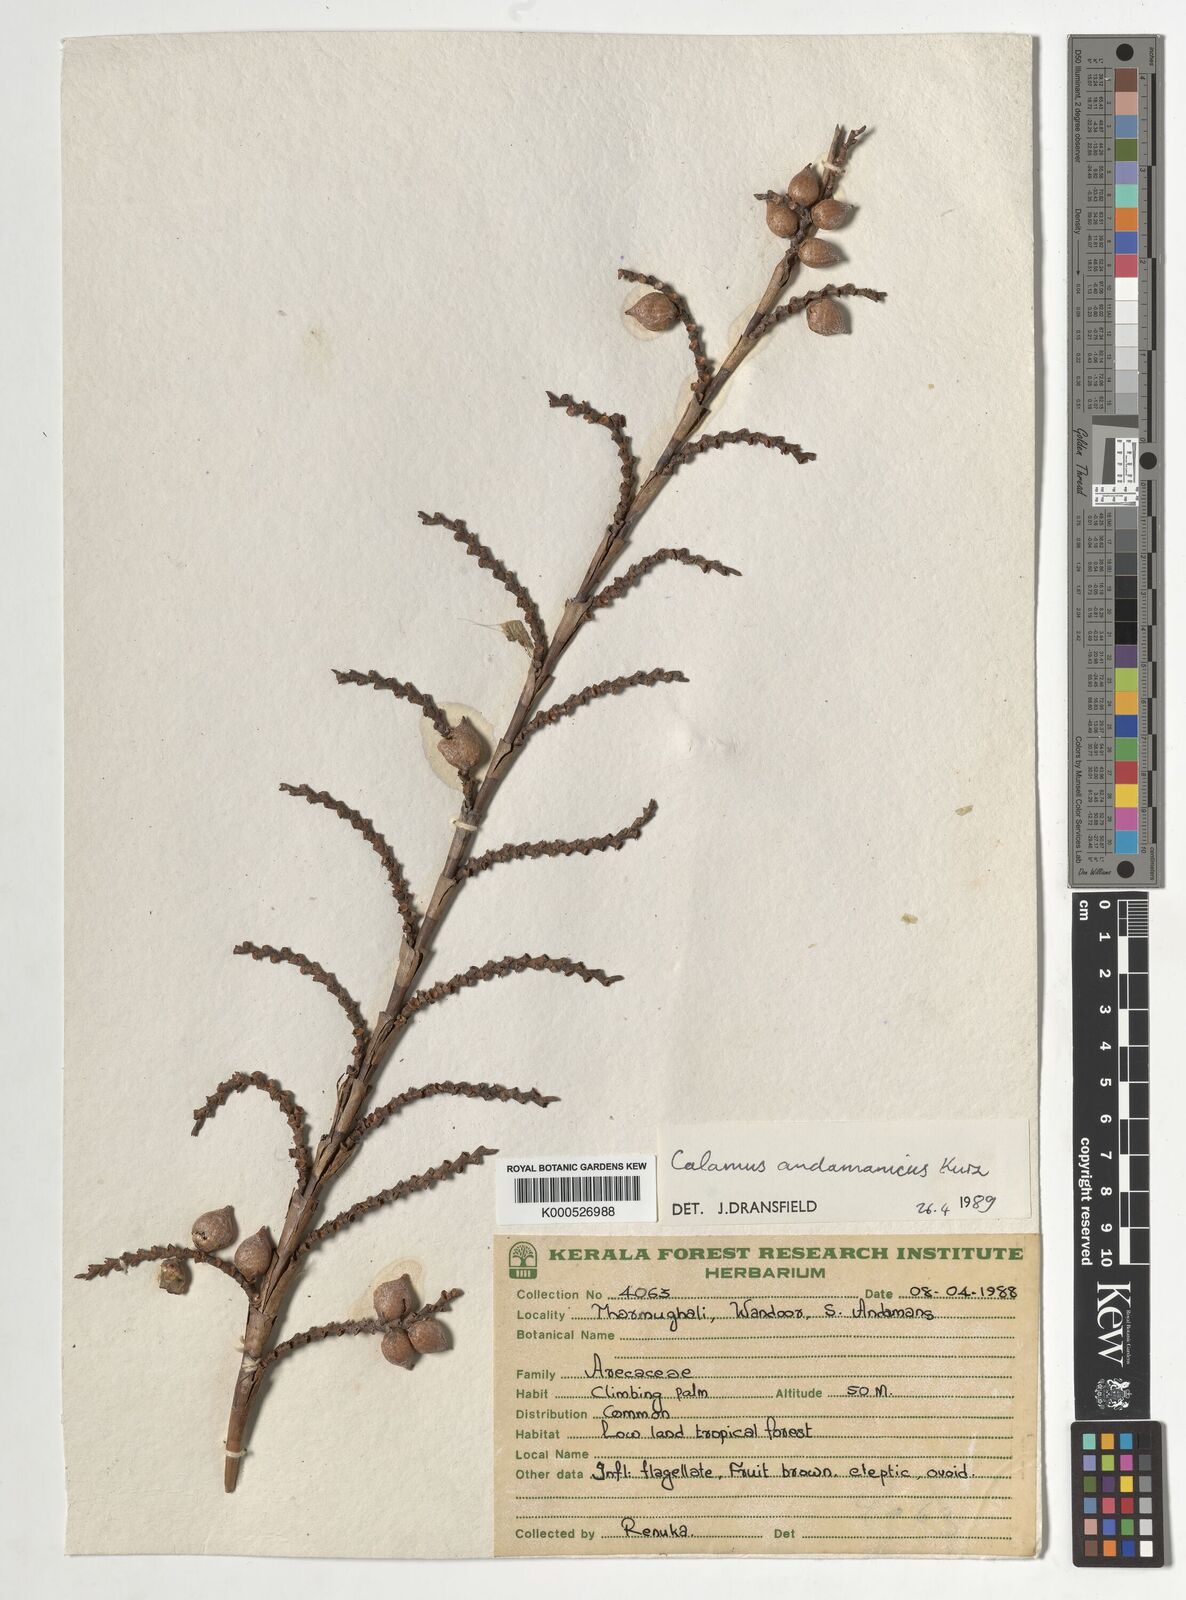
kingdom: Plantae
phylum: Tracheophyta
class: Liliopsida
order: Arecales
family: Arecaceae
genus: Calamus
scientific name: Calamus andamanicus
